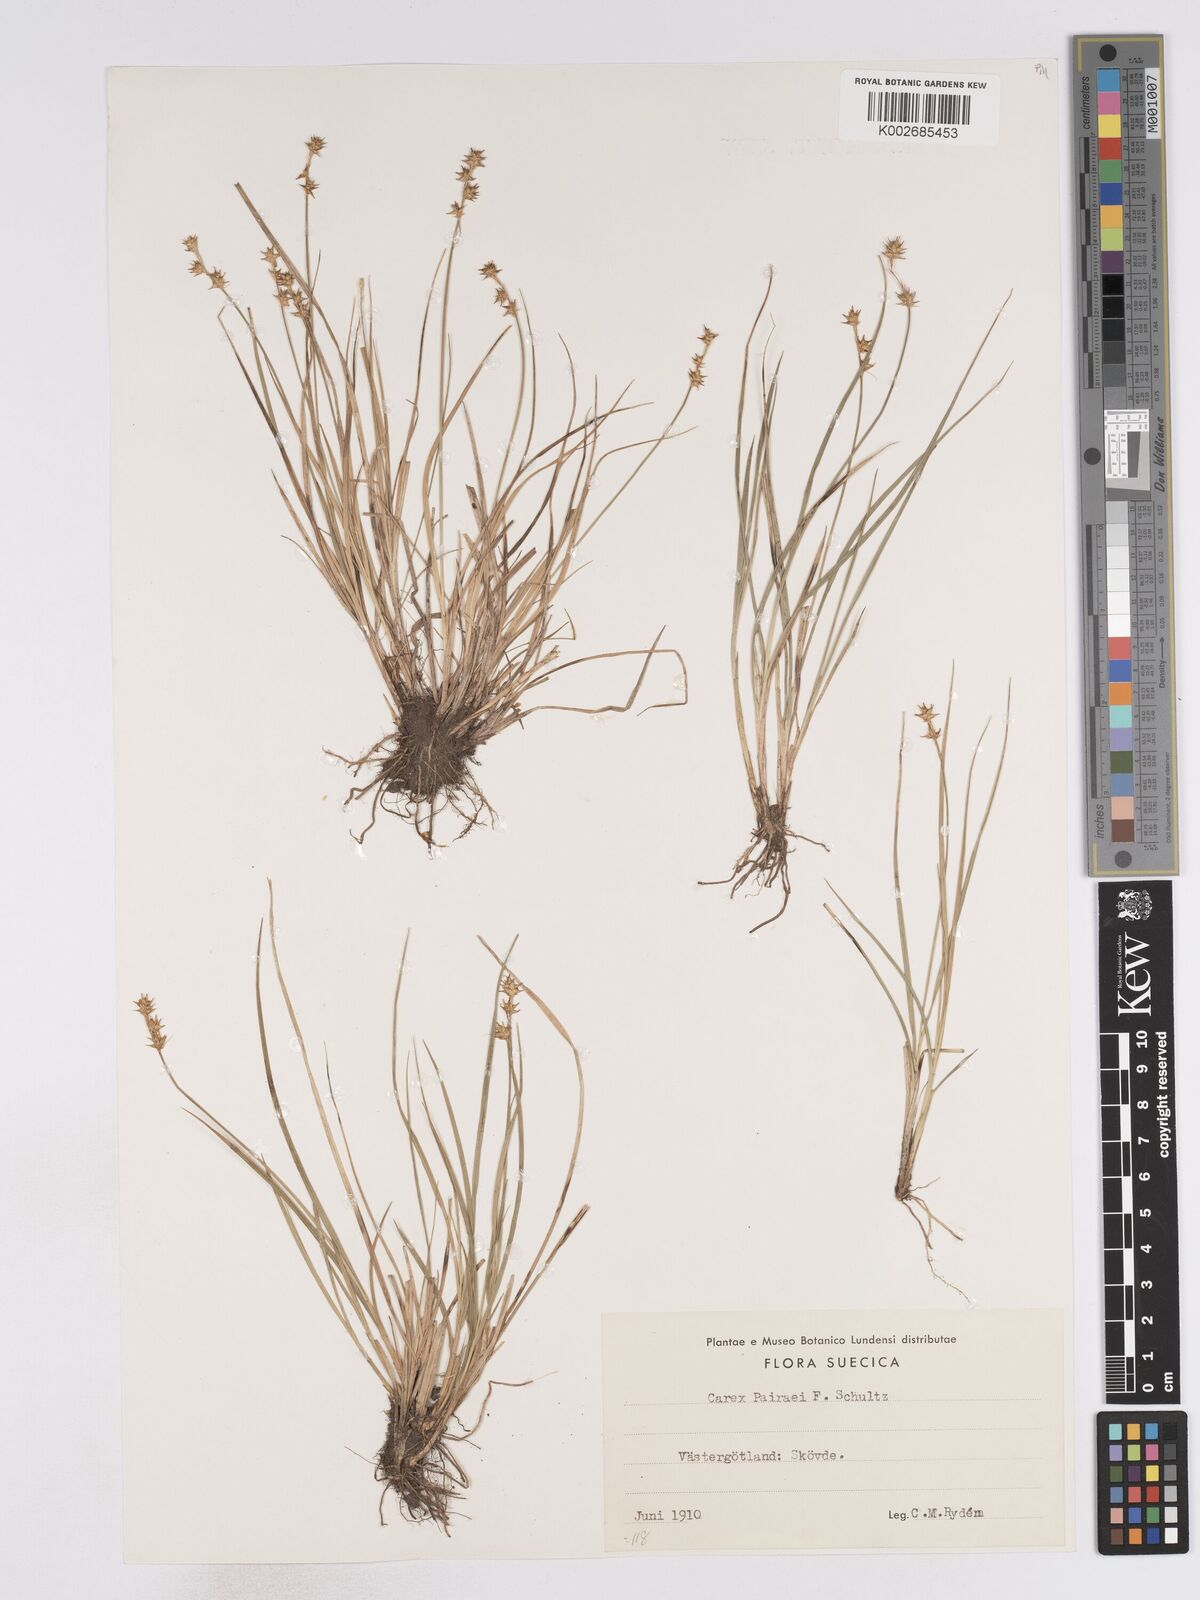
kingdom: Plantae
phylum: Tracheophyta
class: Liliopsida
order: Poales
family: Cyperaceae
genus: Carex
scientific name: Carex echinata
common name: Star sedge
